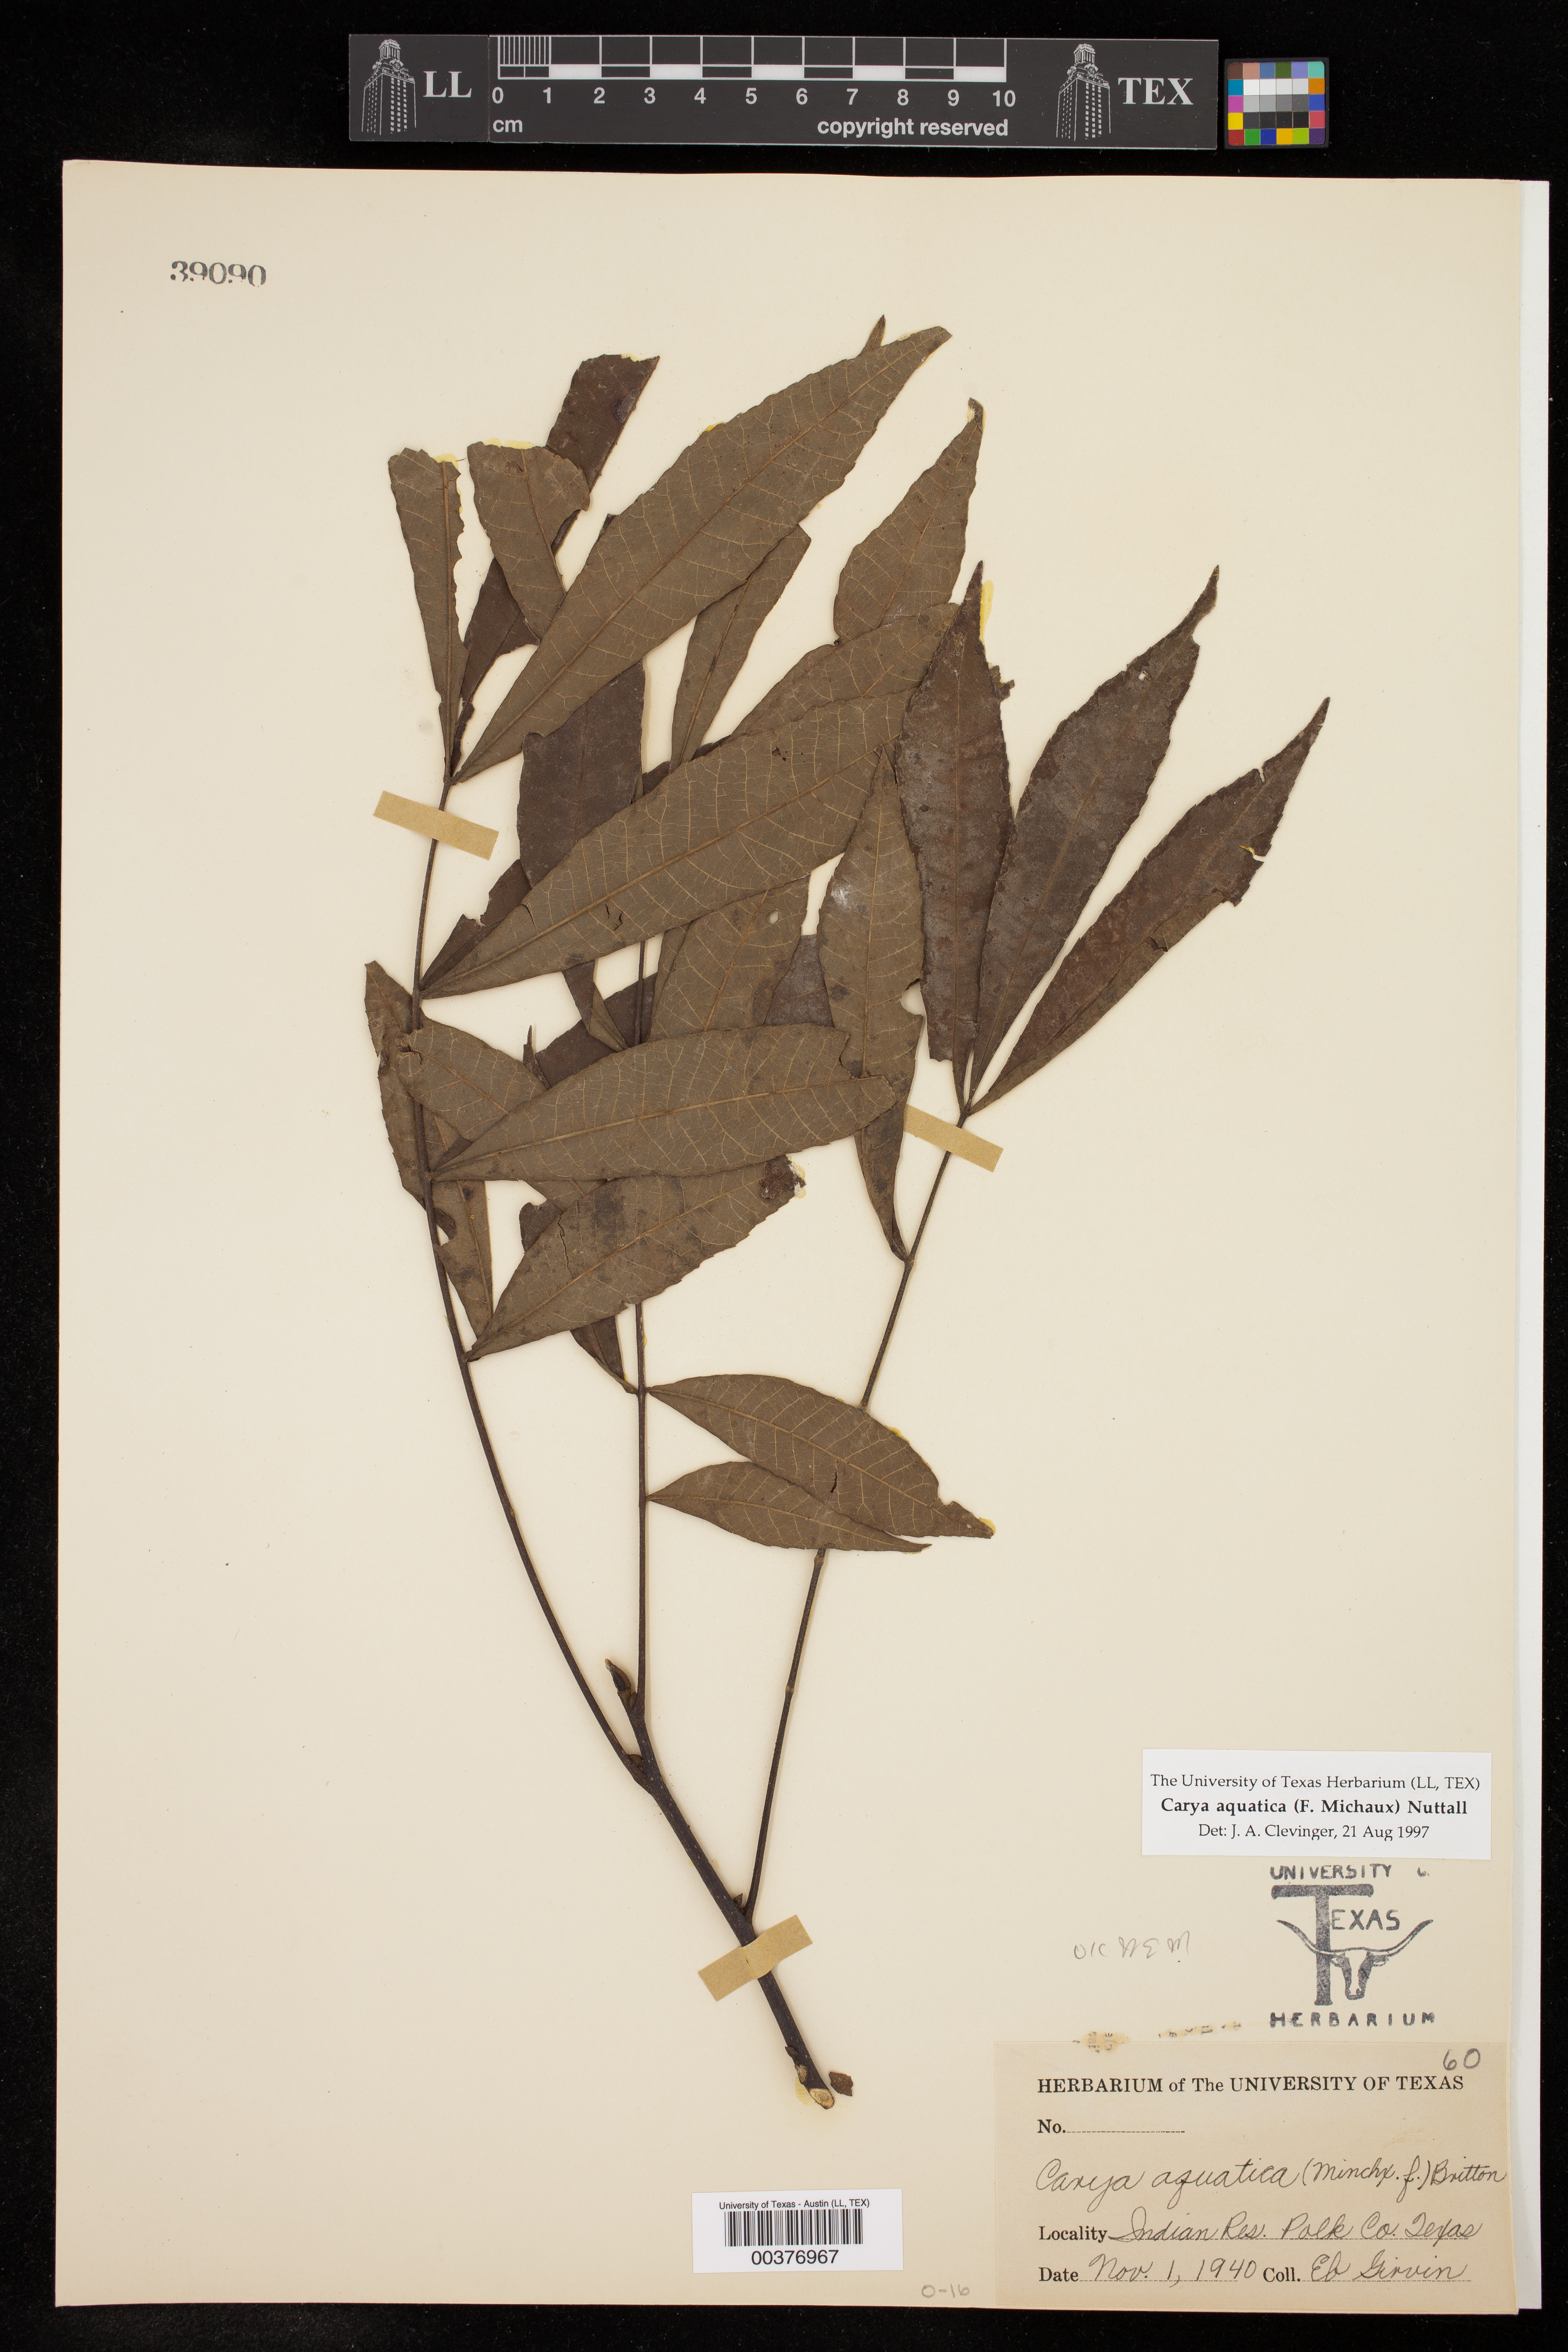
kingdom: Plantae
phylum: Tracheophyta
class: Magnoliopsida
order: Fagales
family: Juglandaceae
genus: Carya
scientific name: Carya aquatica
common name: Water hickory
